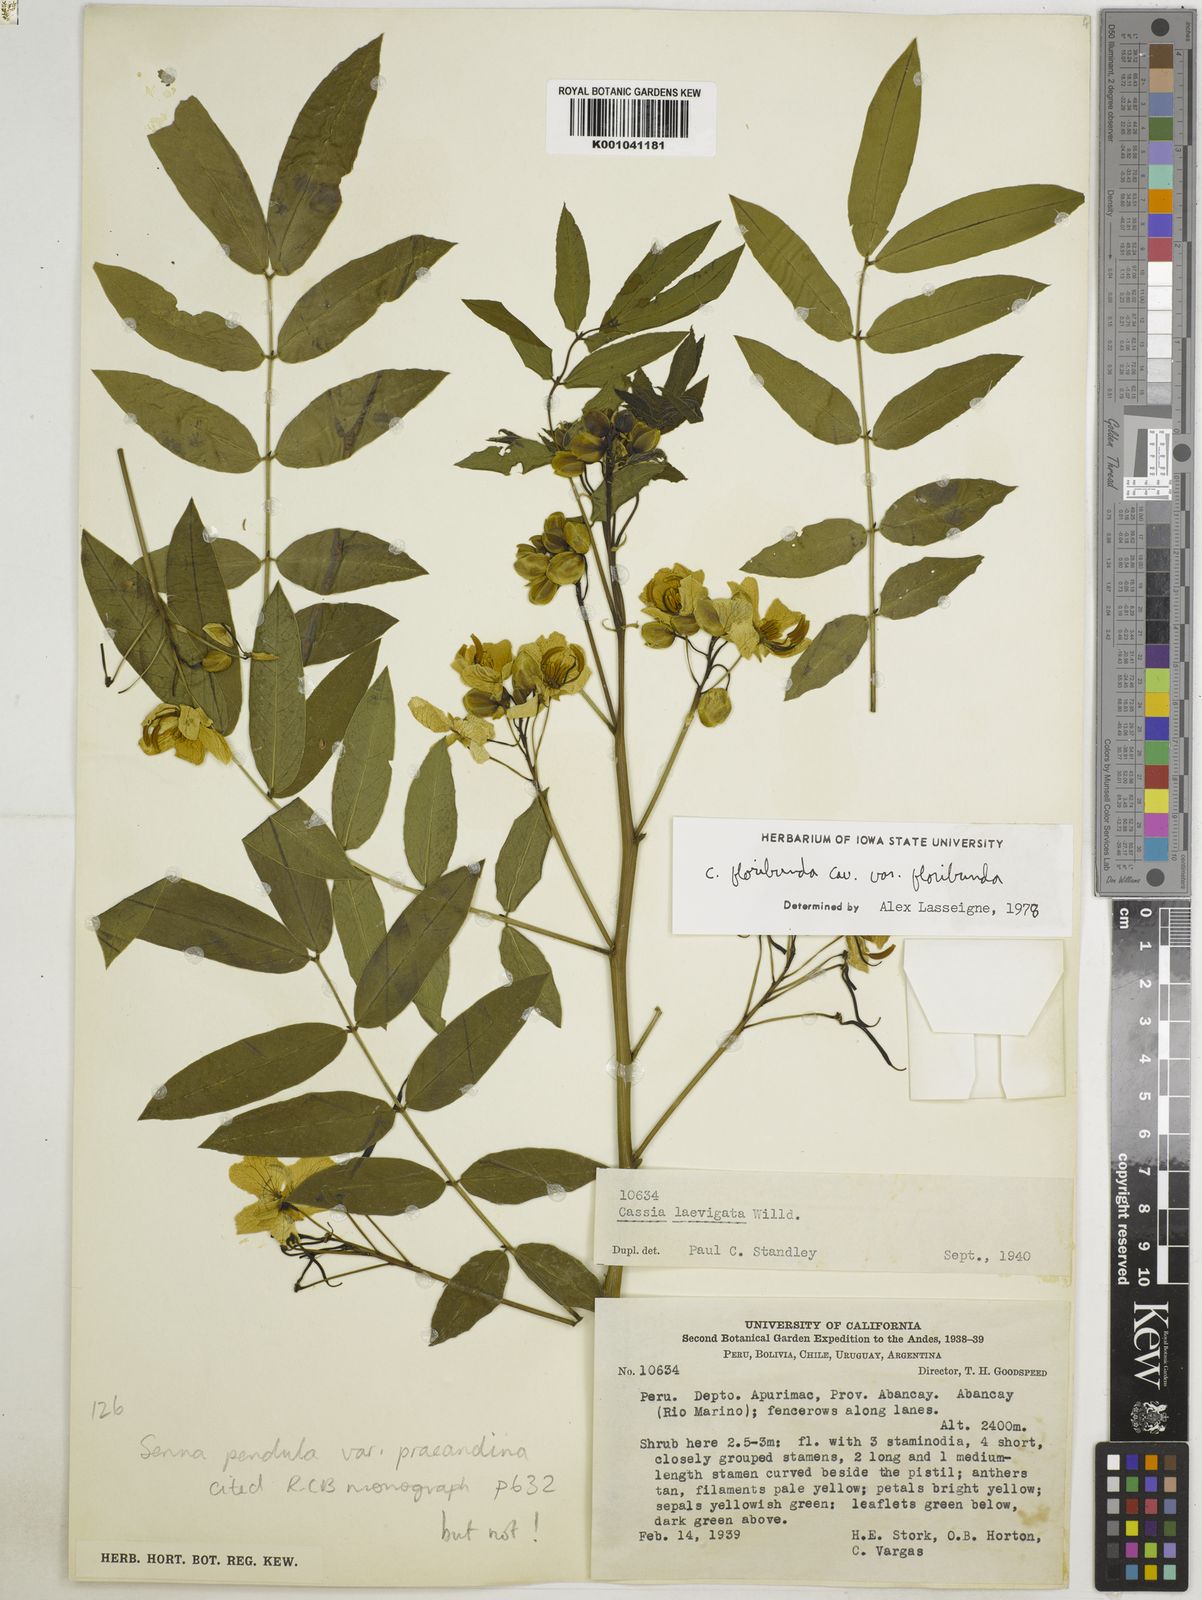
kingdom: Plantae
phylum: Tracheophyta
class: Magnoliopsida
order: Fabales
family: Fabaceae
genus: Senna
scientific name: Senna pendula
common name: Easter cassia
